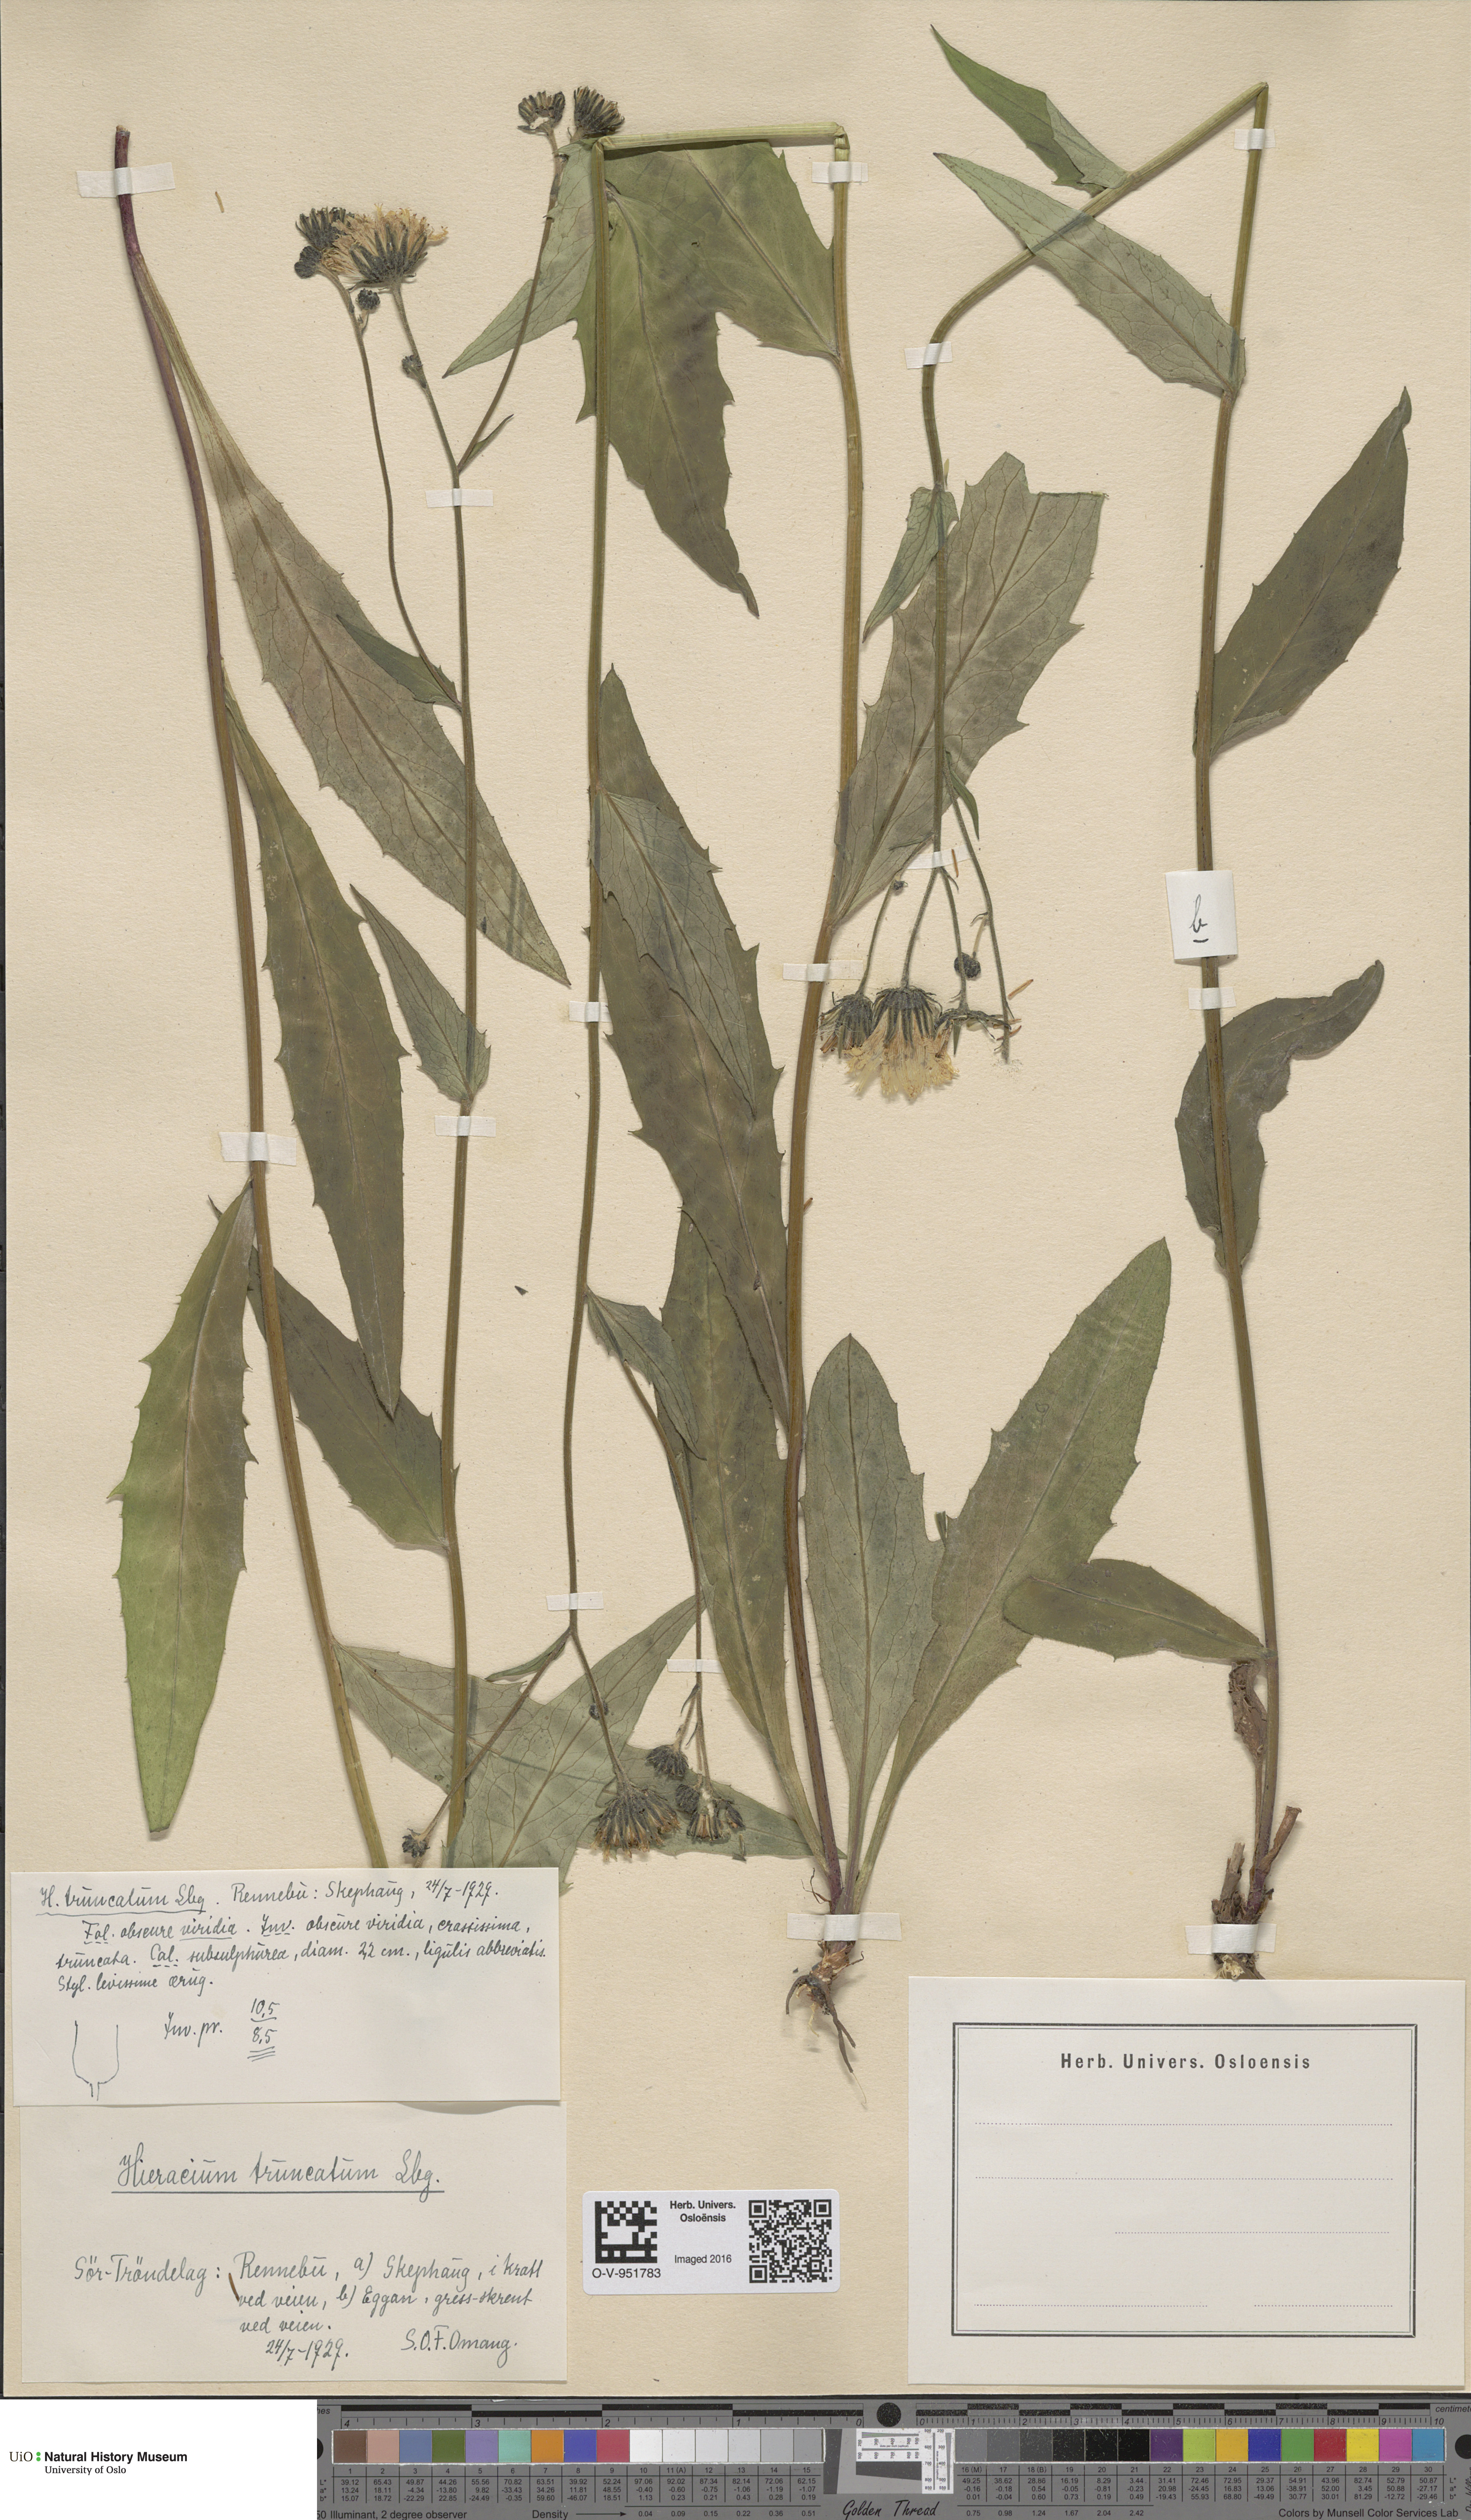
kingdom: Plantae
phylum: Tracheophyta
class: Magnoliopsida
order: Asterales
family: Asteraceae
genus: Hieracium
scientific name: Hieracium truncatum
